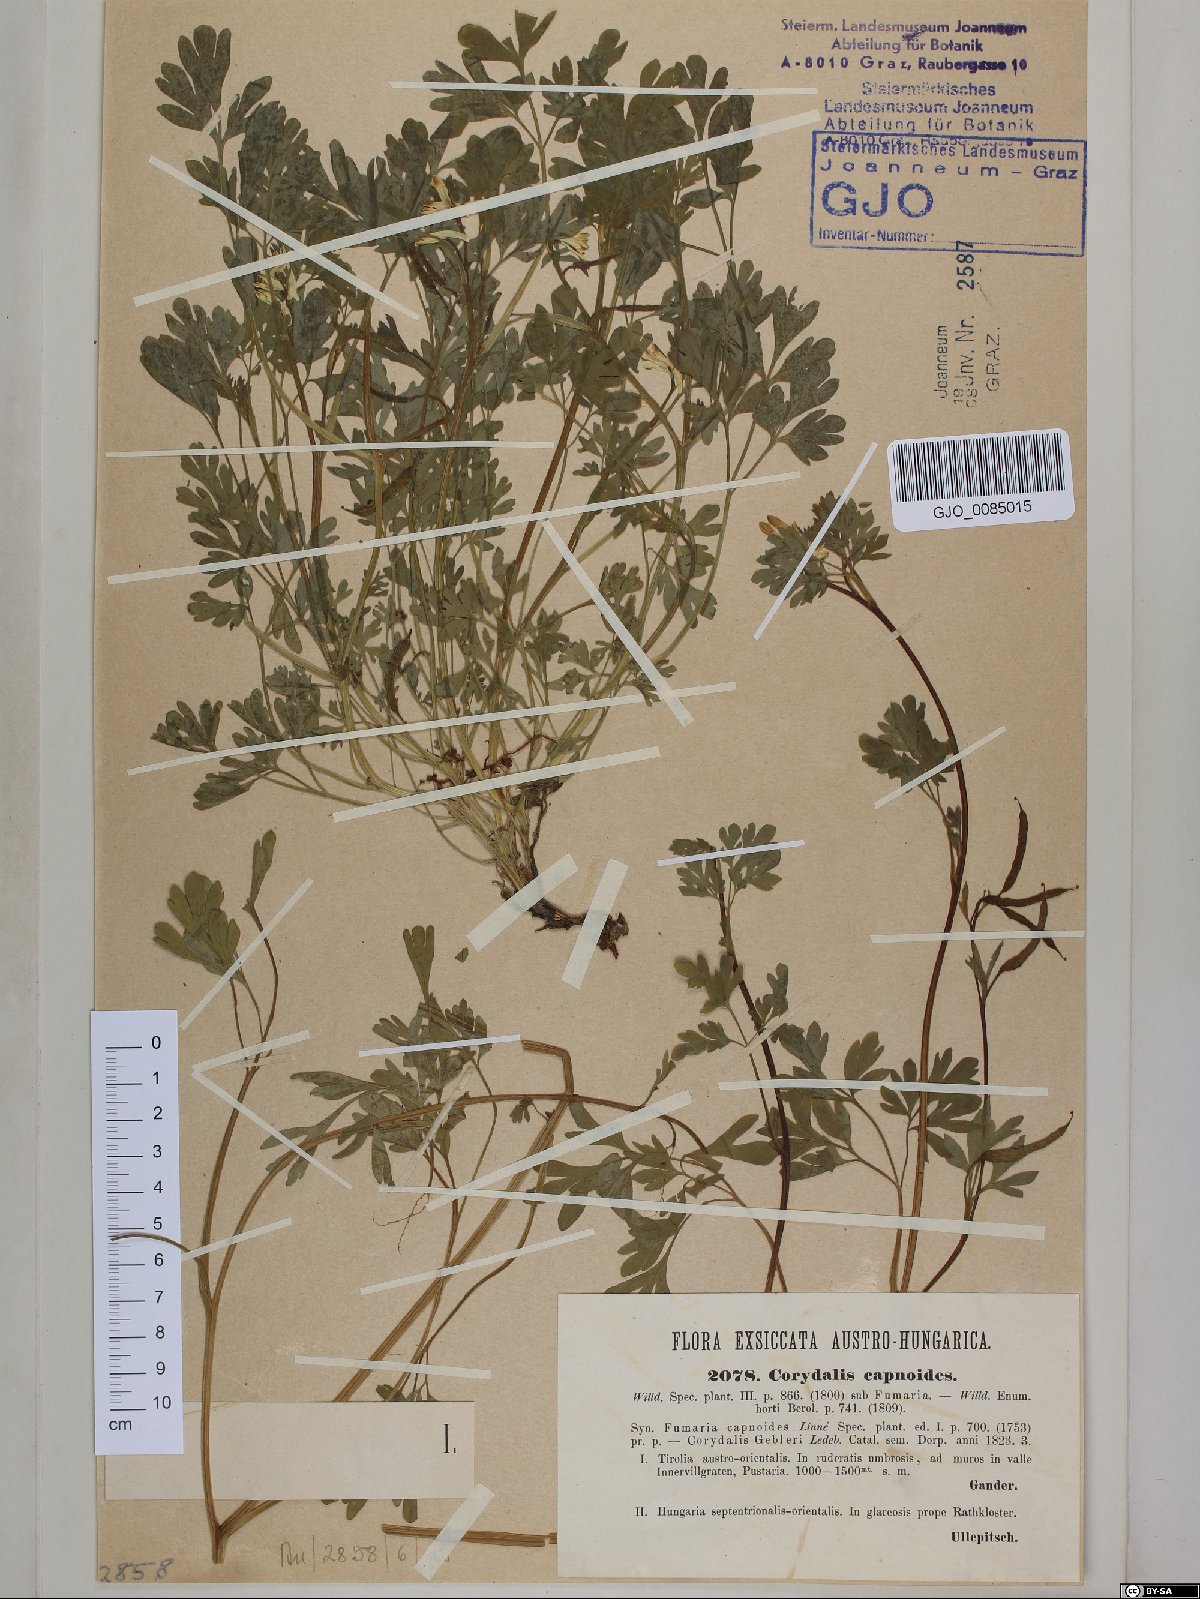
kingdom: Plantae
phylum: Tracheophyta
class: Magnoliopsida
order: Ranunculales
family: Papaveraceae
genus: Corydalis
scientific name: Corydalis capnoides
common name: Beaked corydalis
